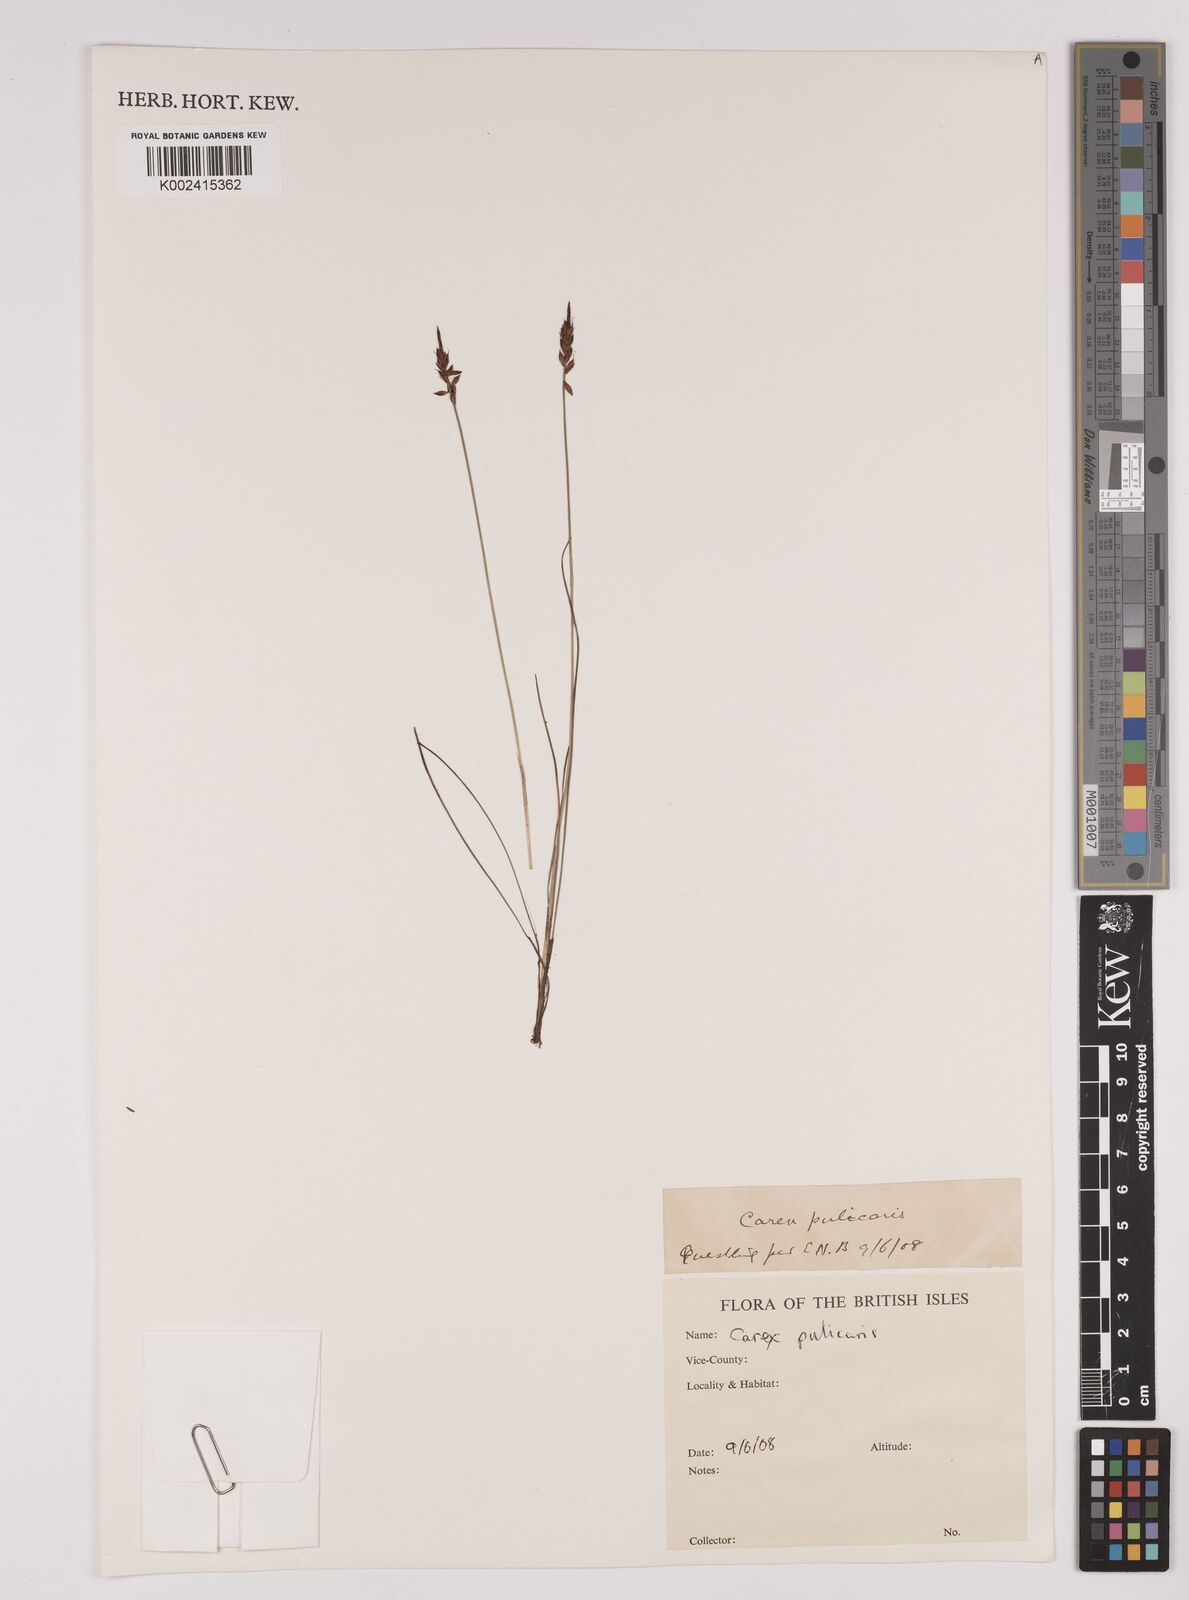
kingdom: Plantae
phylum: Tracheophyta
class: Liliopsida
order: Poales
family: Cyperaceae
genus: Carex
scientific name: Carex pulicaris
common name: Flea sedge
